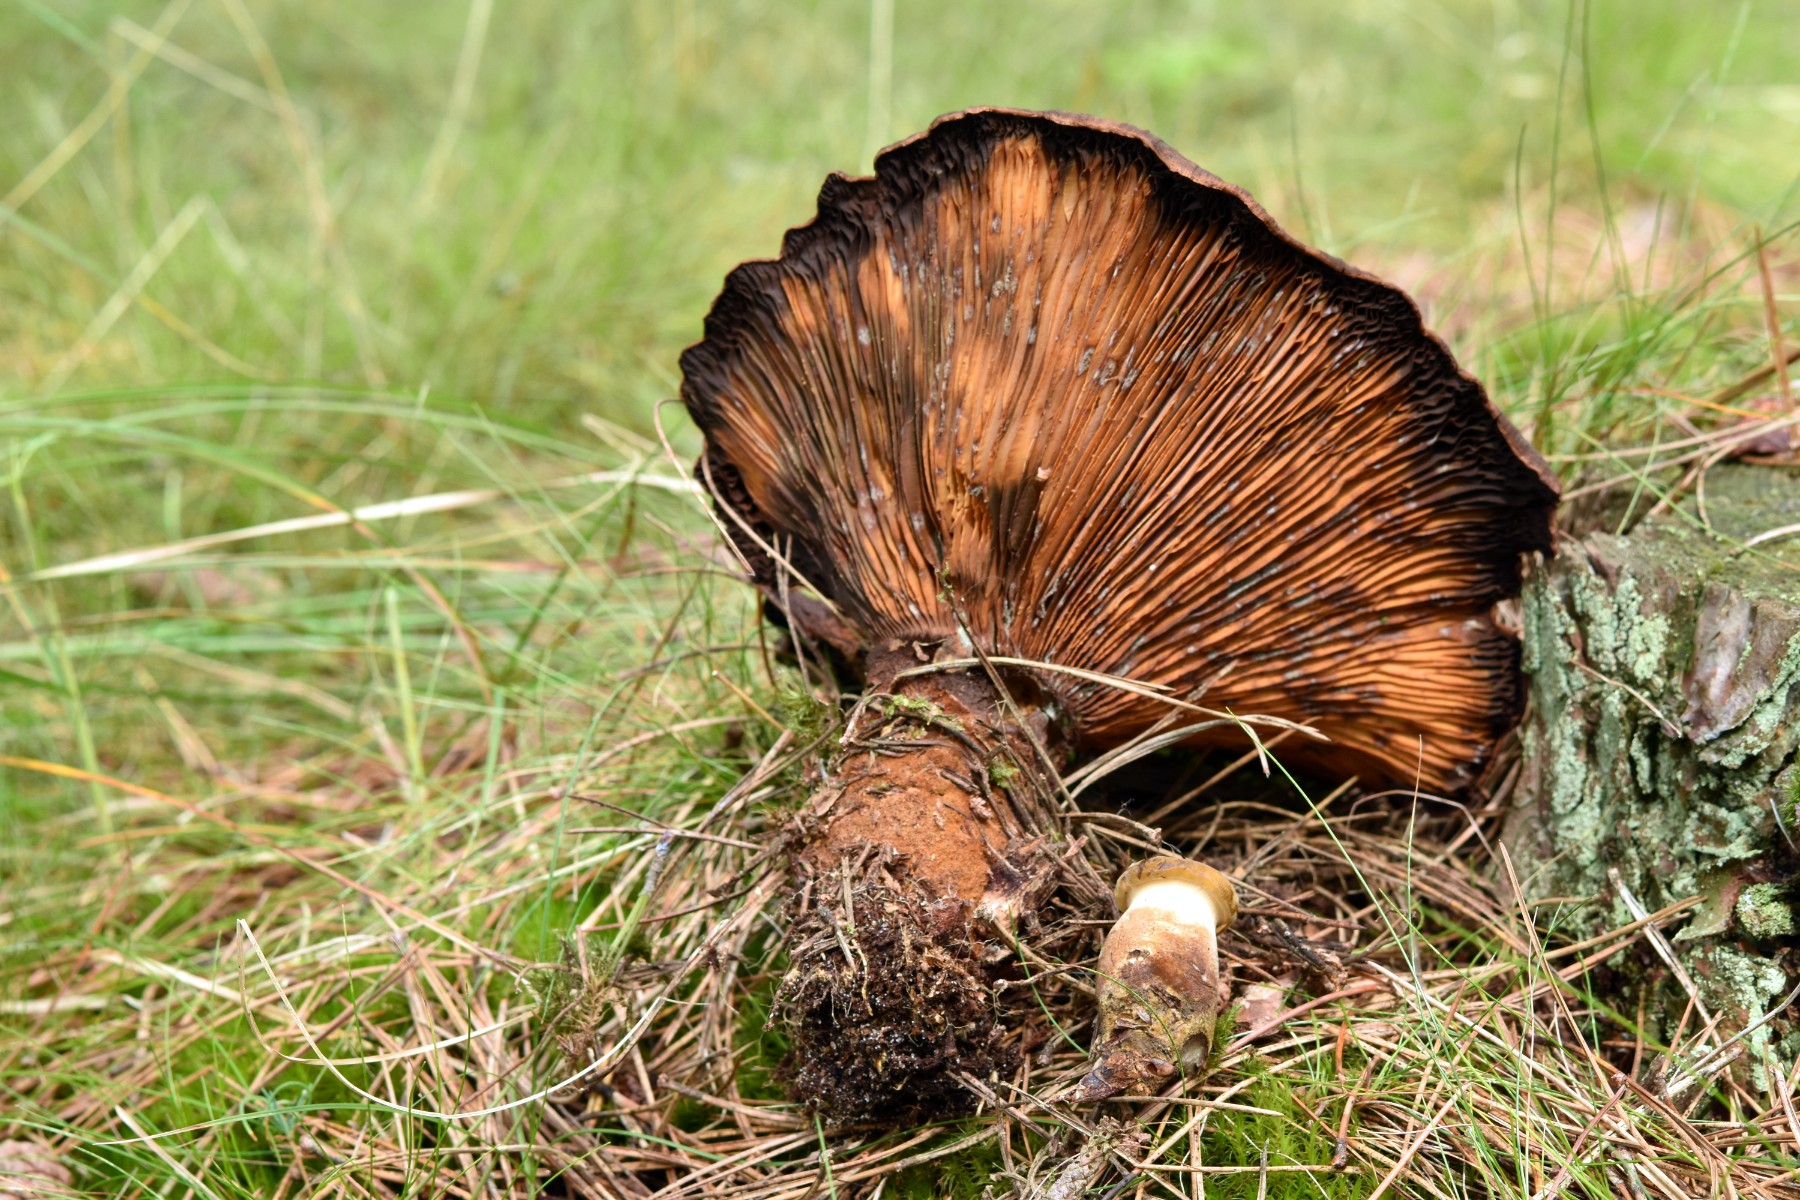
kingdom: Fungi
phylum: Basidiomycota
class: Agaricomycetes
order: Boletales
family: Tapinellaceae
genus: Tapinella
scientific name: Tapinella atrotomentosa
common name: sortfiltet viftesvamp
